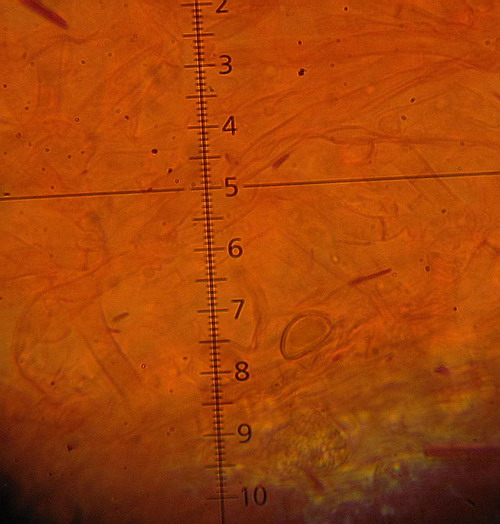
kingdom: Fungi
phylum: Basidiomycota
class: Agaricomycetes
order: Sebacinales
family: Sebacinaceae
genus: Sebacina
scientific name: Sebacina incrustans
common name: krybende bævretalg
